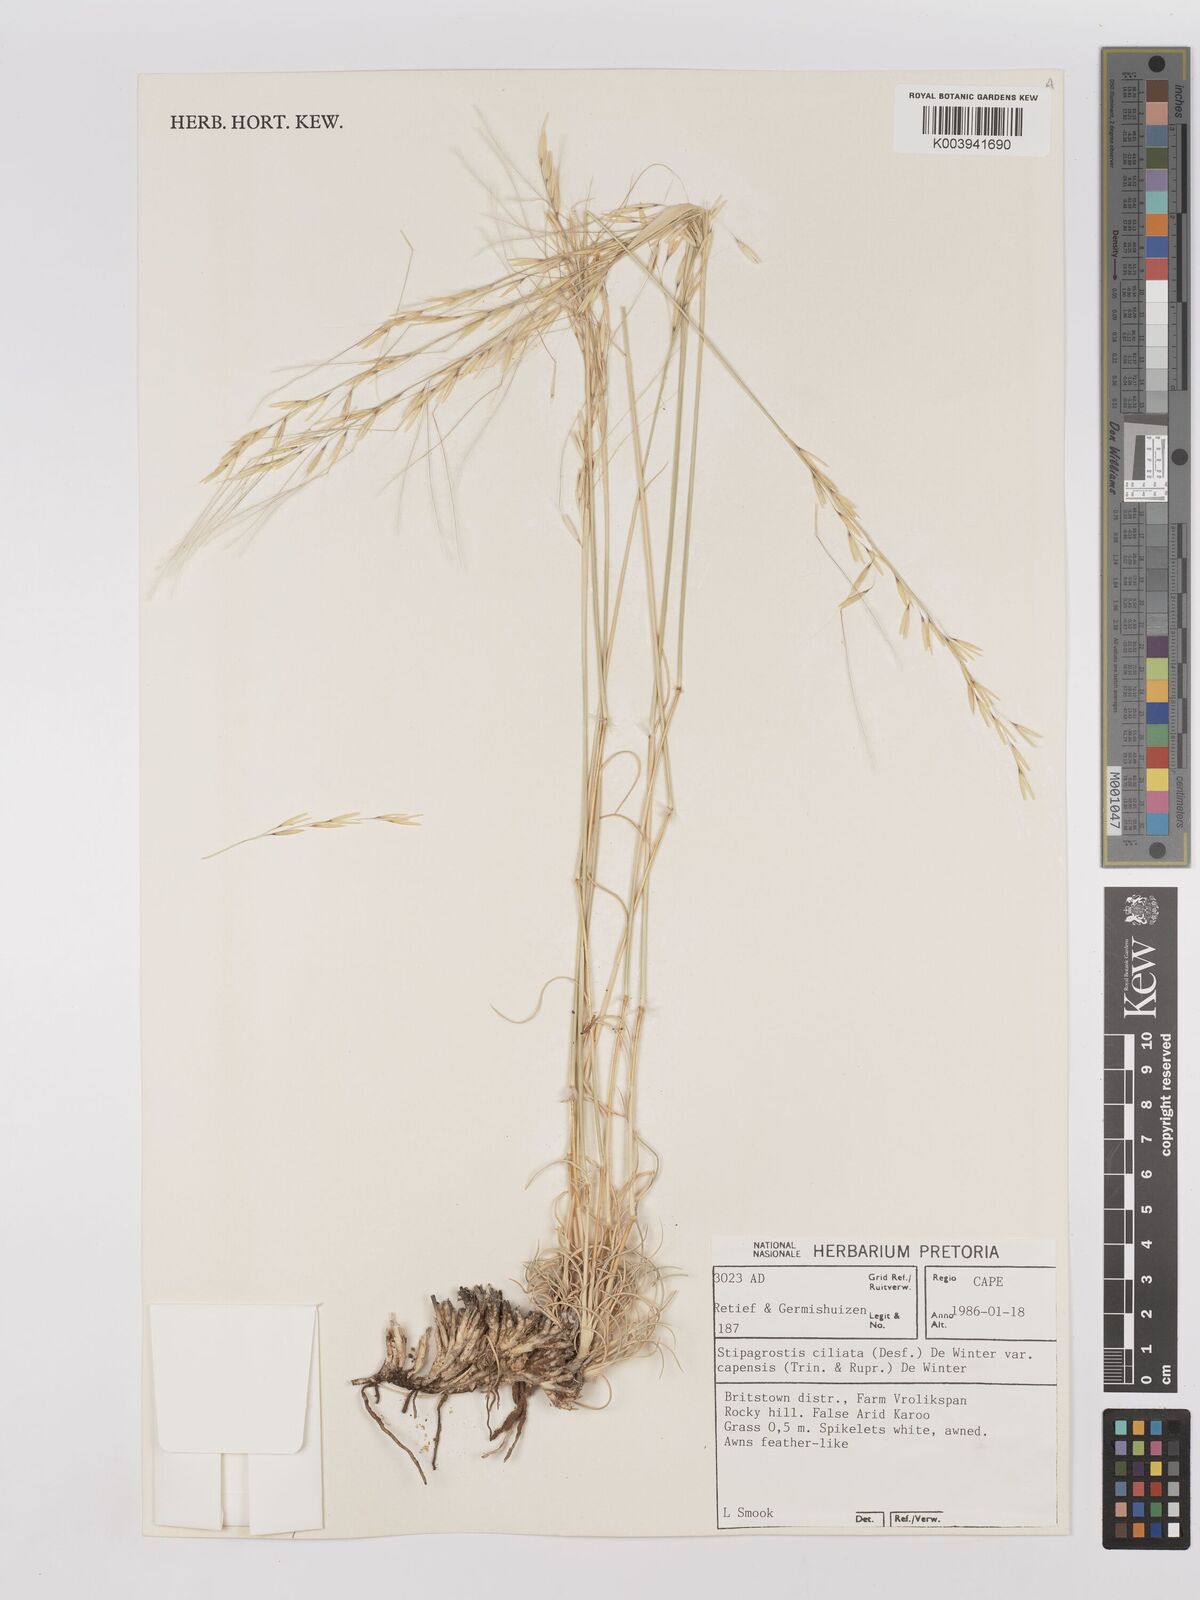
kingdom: Plantae
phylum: Tracheophyta
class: Liliopsida
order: Poales
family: Poaceae
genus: Stipagrostis
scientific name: Stipagrostis ciliata
